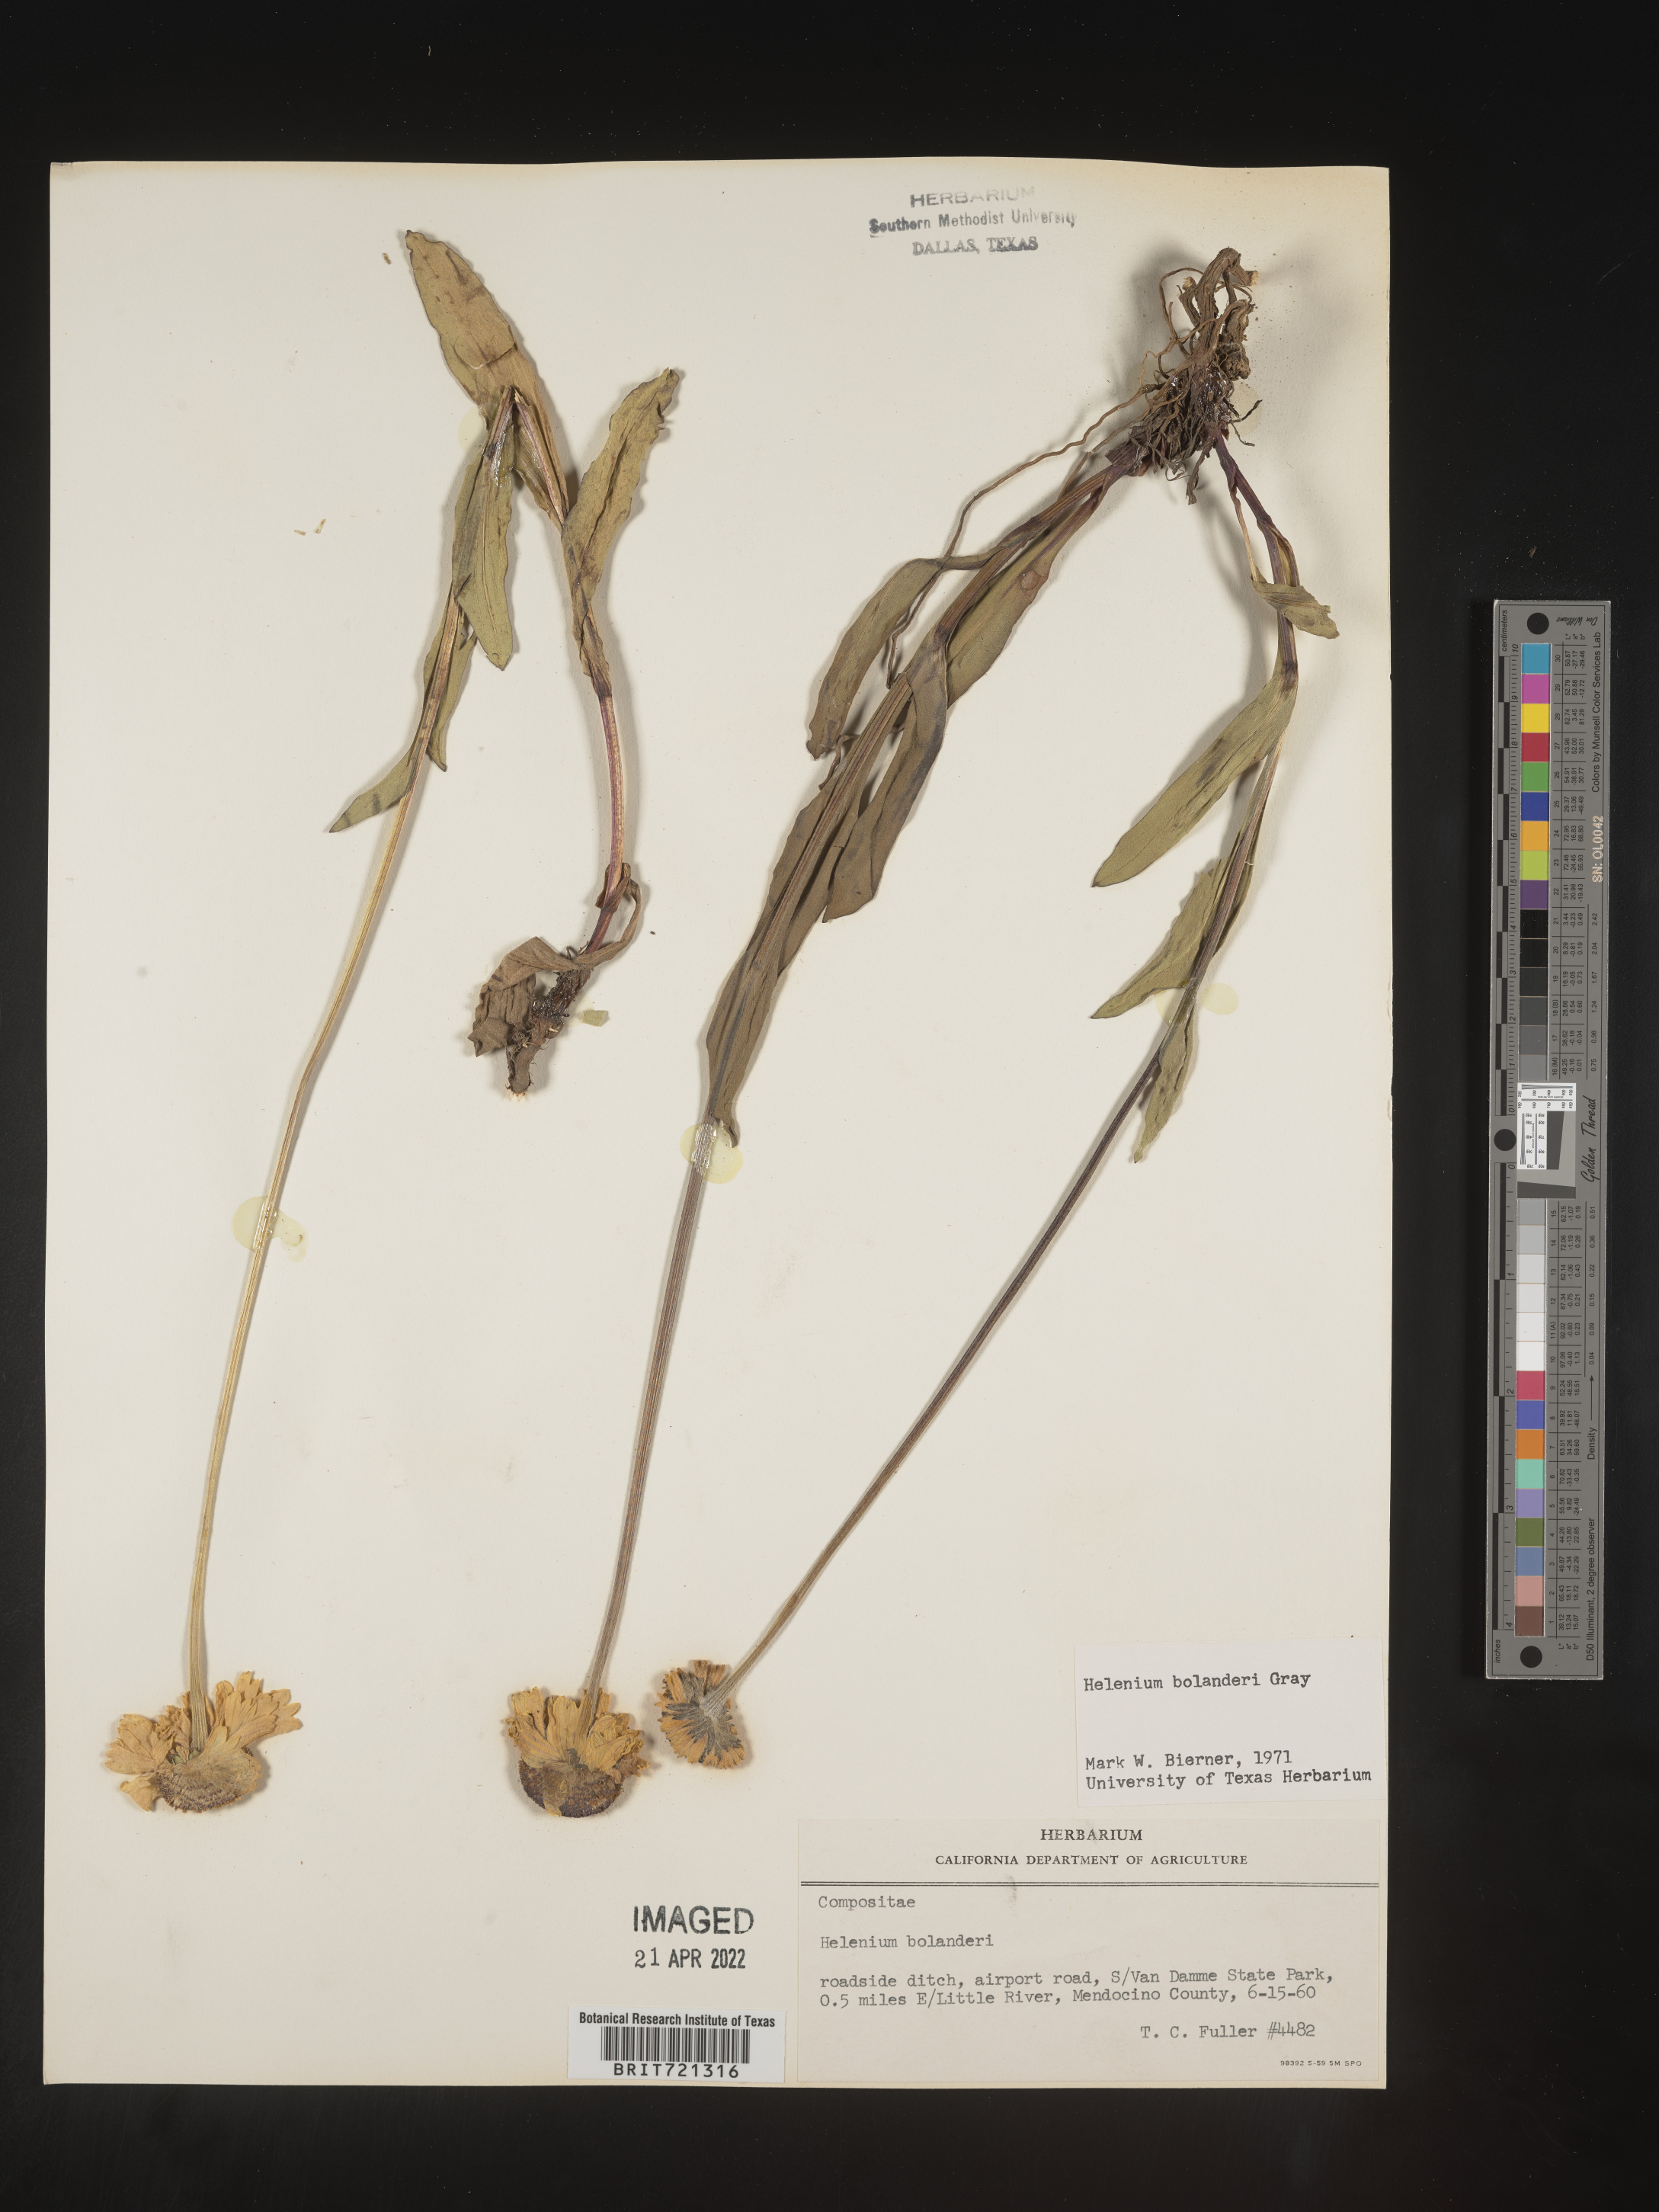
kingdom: Plantae
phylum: Tracheophyta
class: Magnoliopsida
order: Asterales
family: Asteraceae
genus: Helenium
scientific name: Helenium
